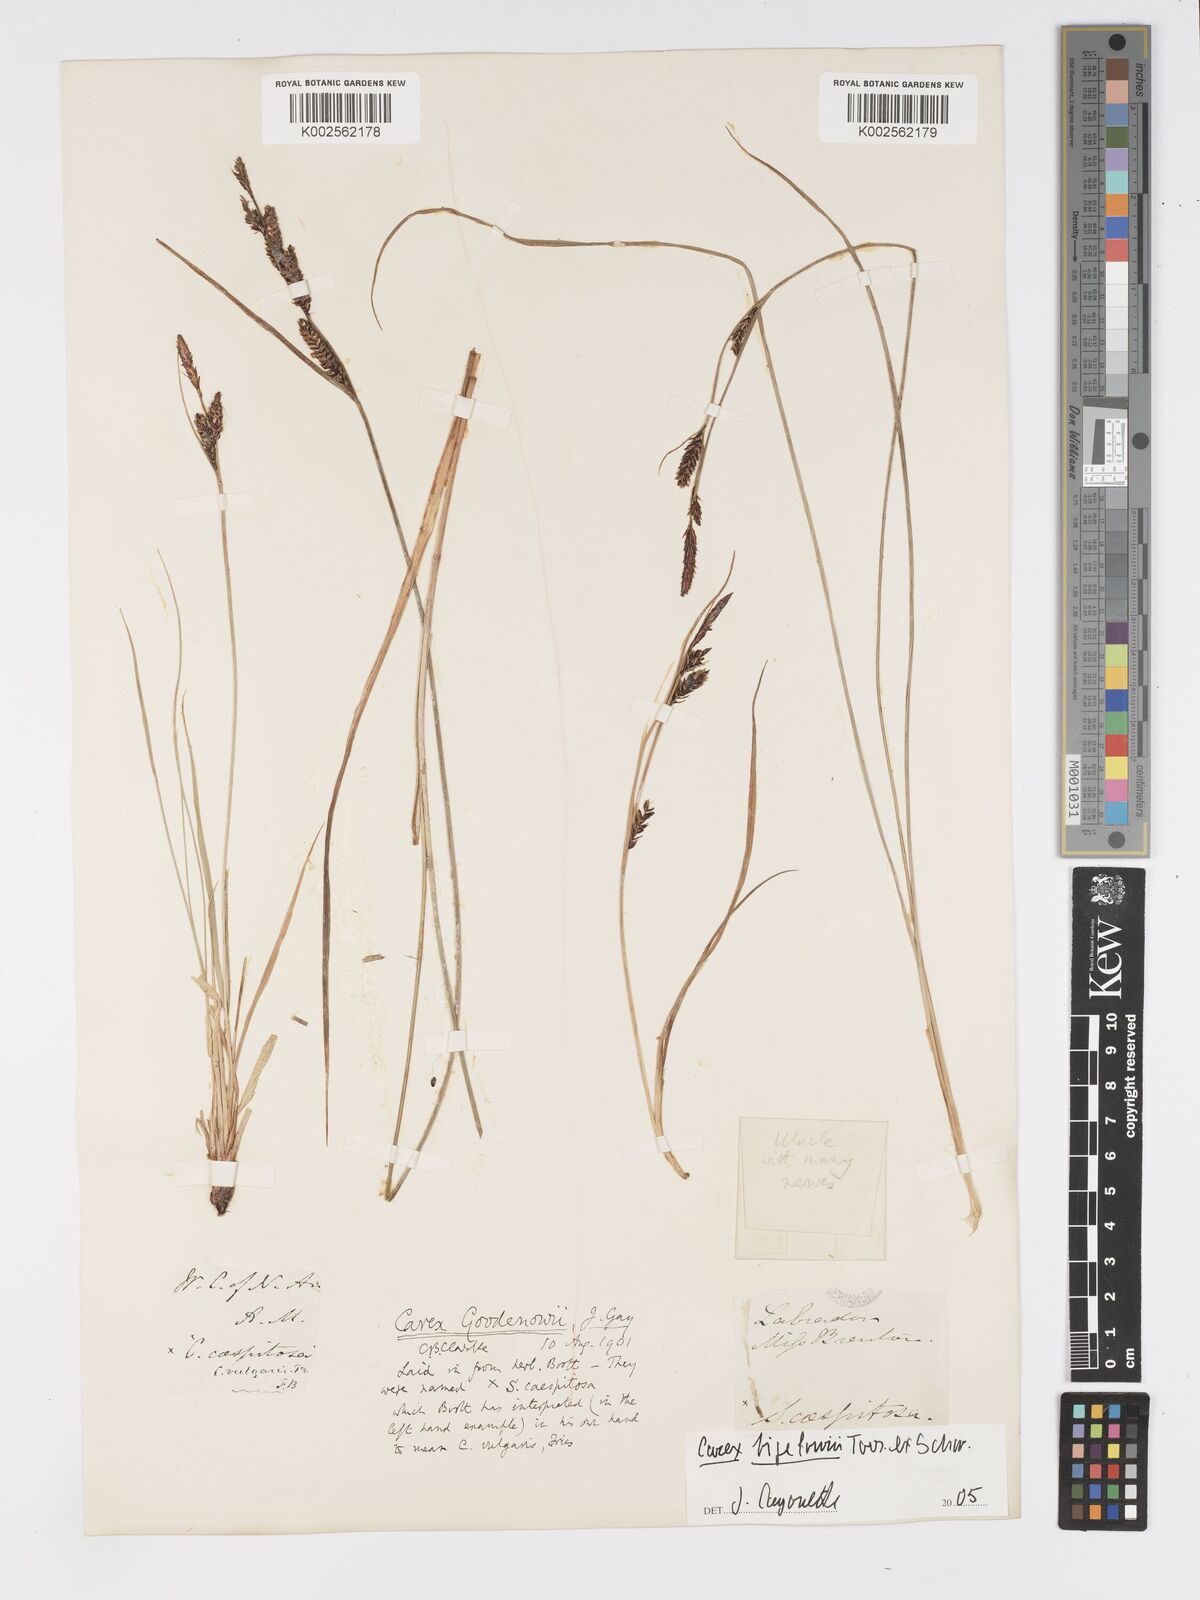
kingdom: Plantae
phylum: Tracheophyta
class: Liliopsida
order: Poales
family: Cyperaceae
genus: Carex
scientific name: Carex nigra
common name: Common sedge
